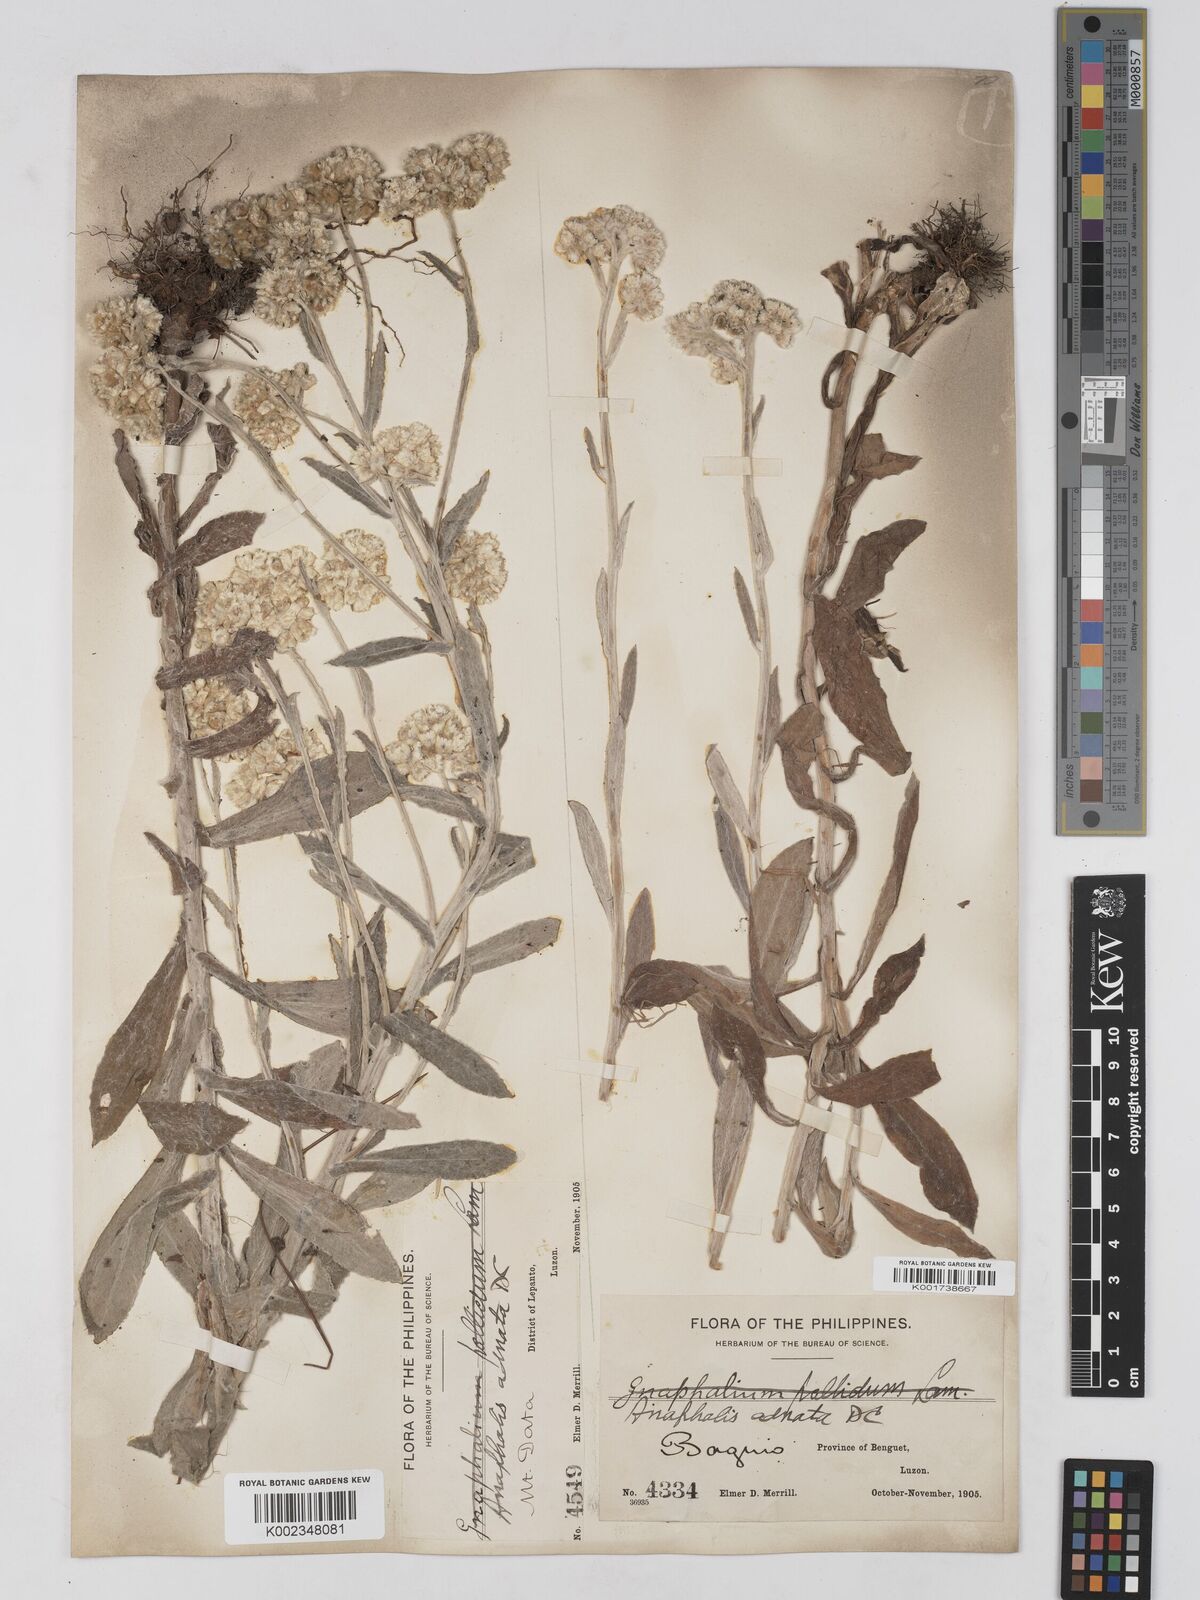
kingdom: Plantae
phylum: Tracheophyta
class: Magnoliopsida
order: Asterales
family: Asteraceae
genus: Pseudognaphalium
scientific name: Pseudognaphalium adnatum
